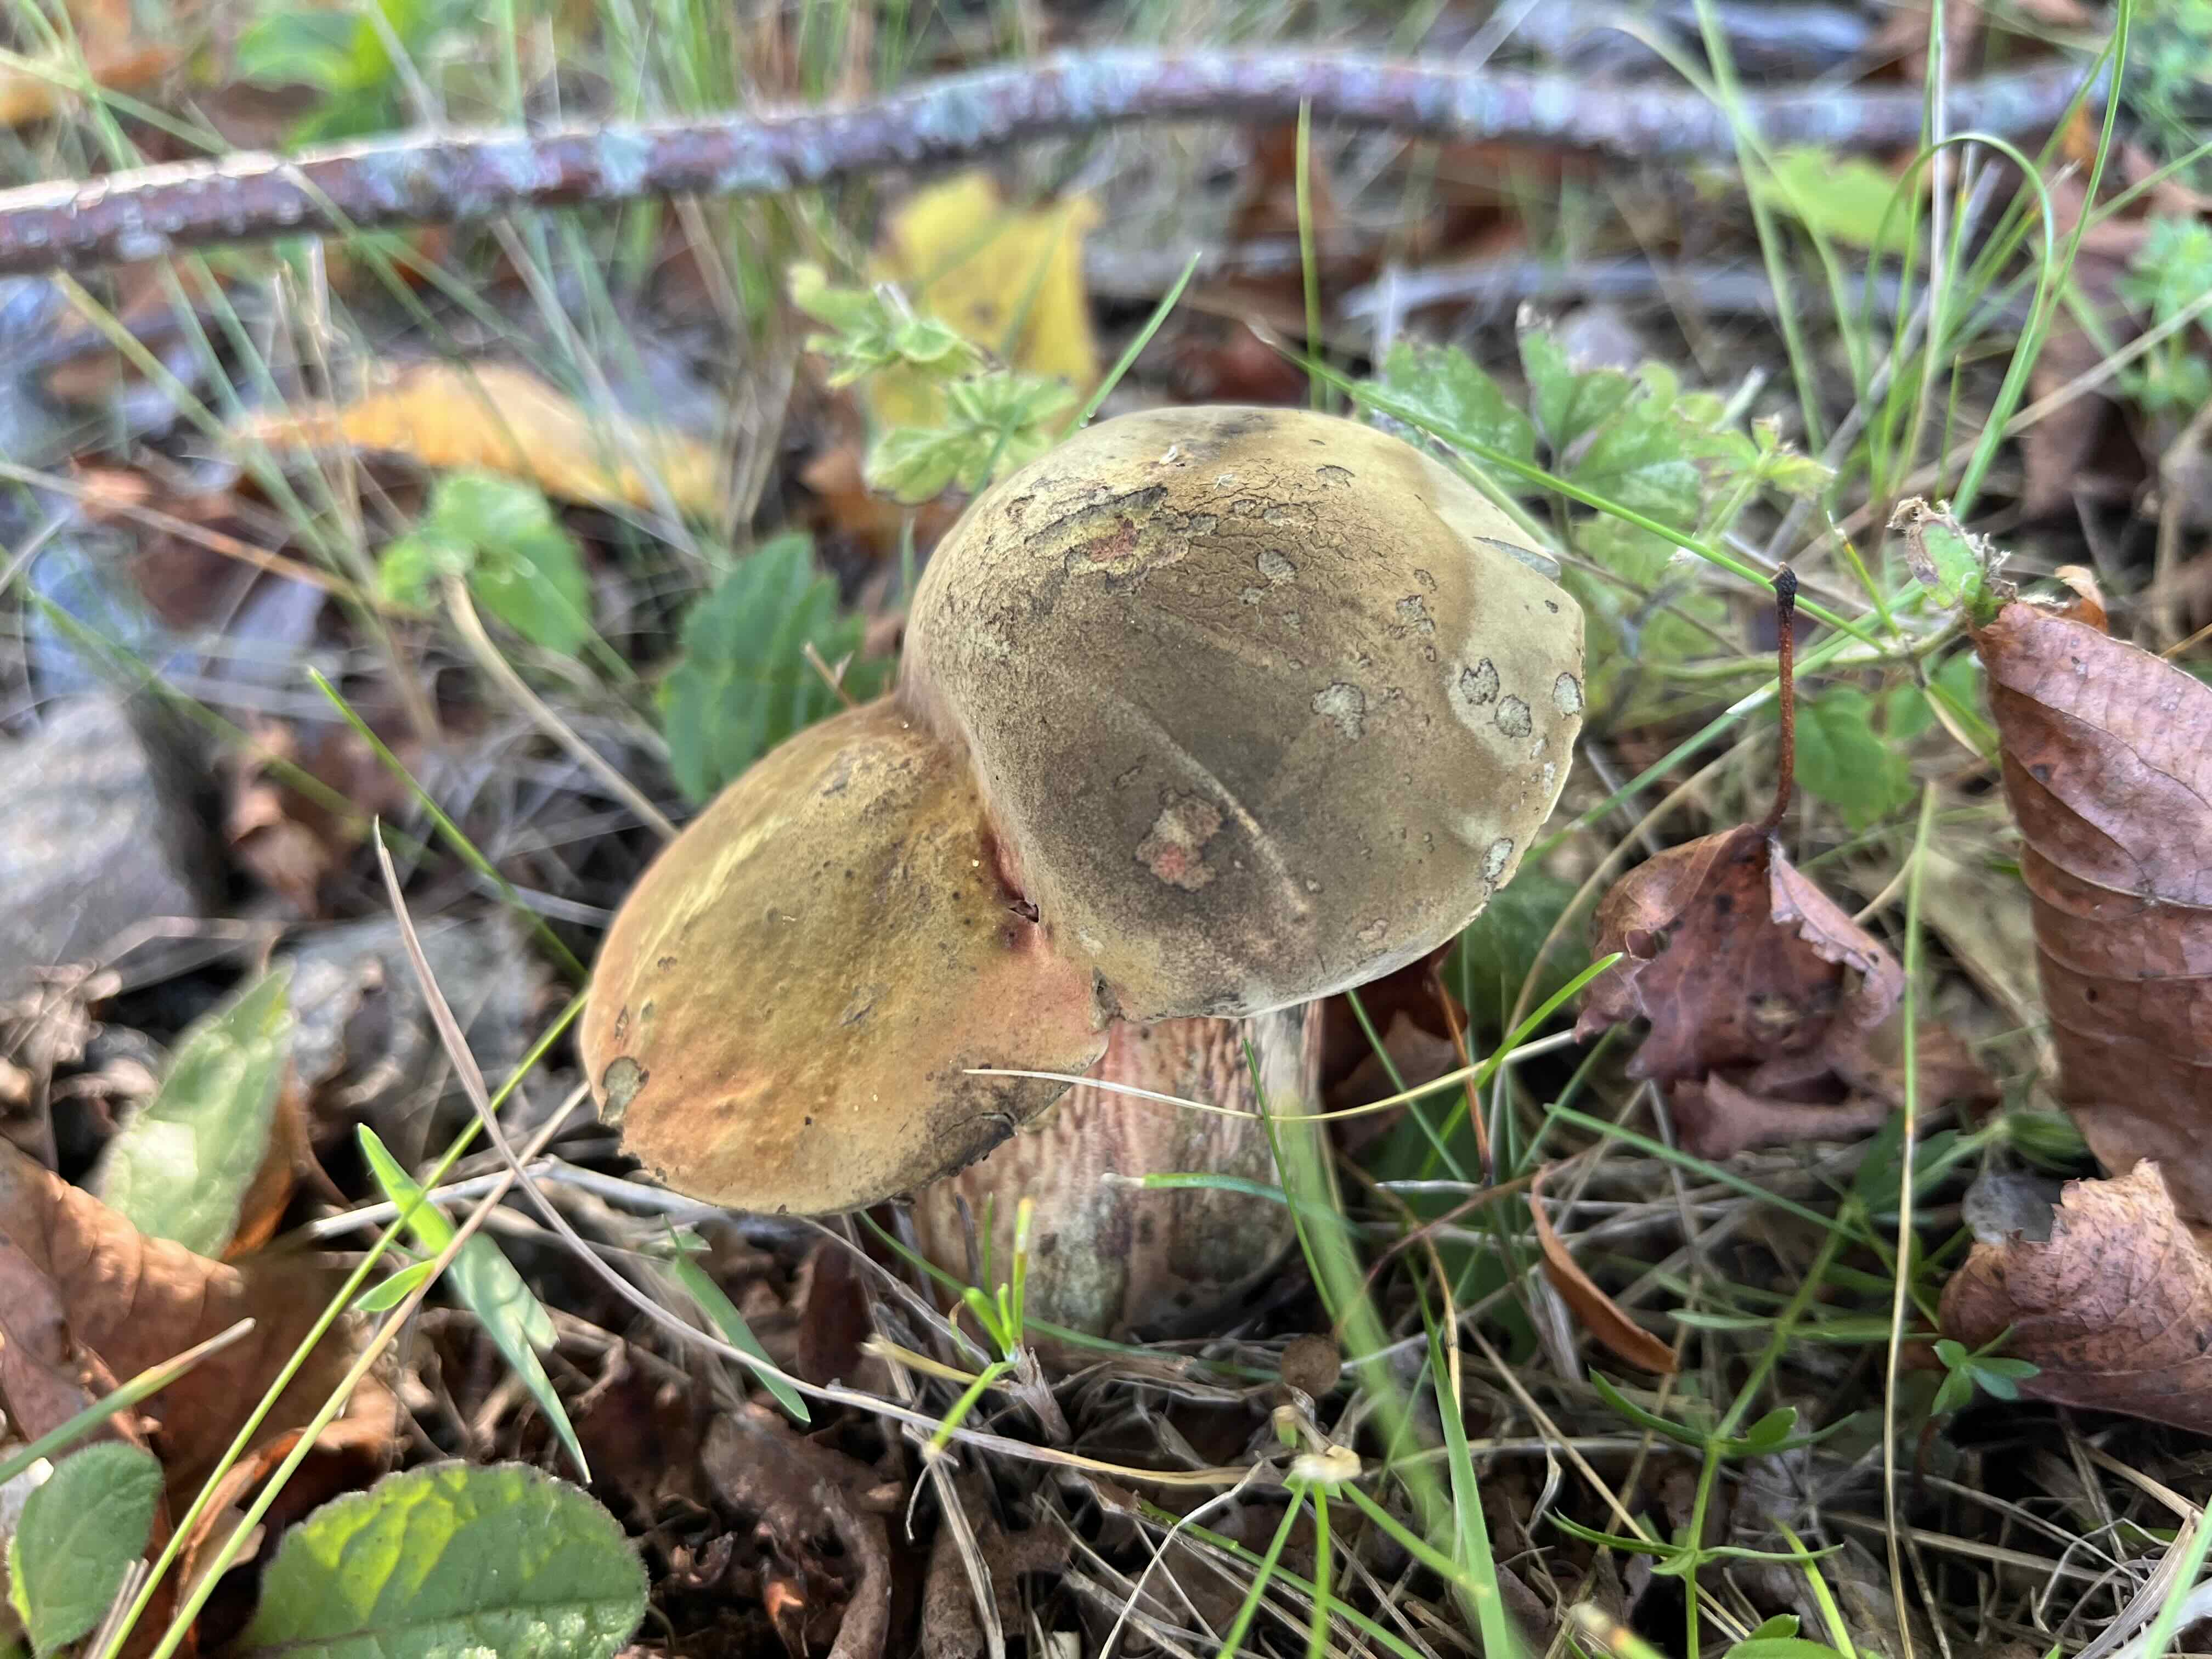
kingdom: Fungi
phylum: Basidiomycota
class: Agaricomycetes
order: Boletales
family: Boletaceae
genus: Suillellus
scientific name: Suillellus luridus
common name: netstokket indigorørhat
